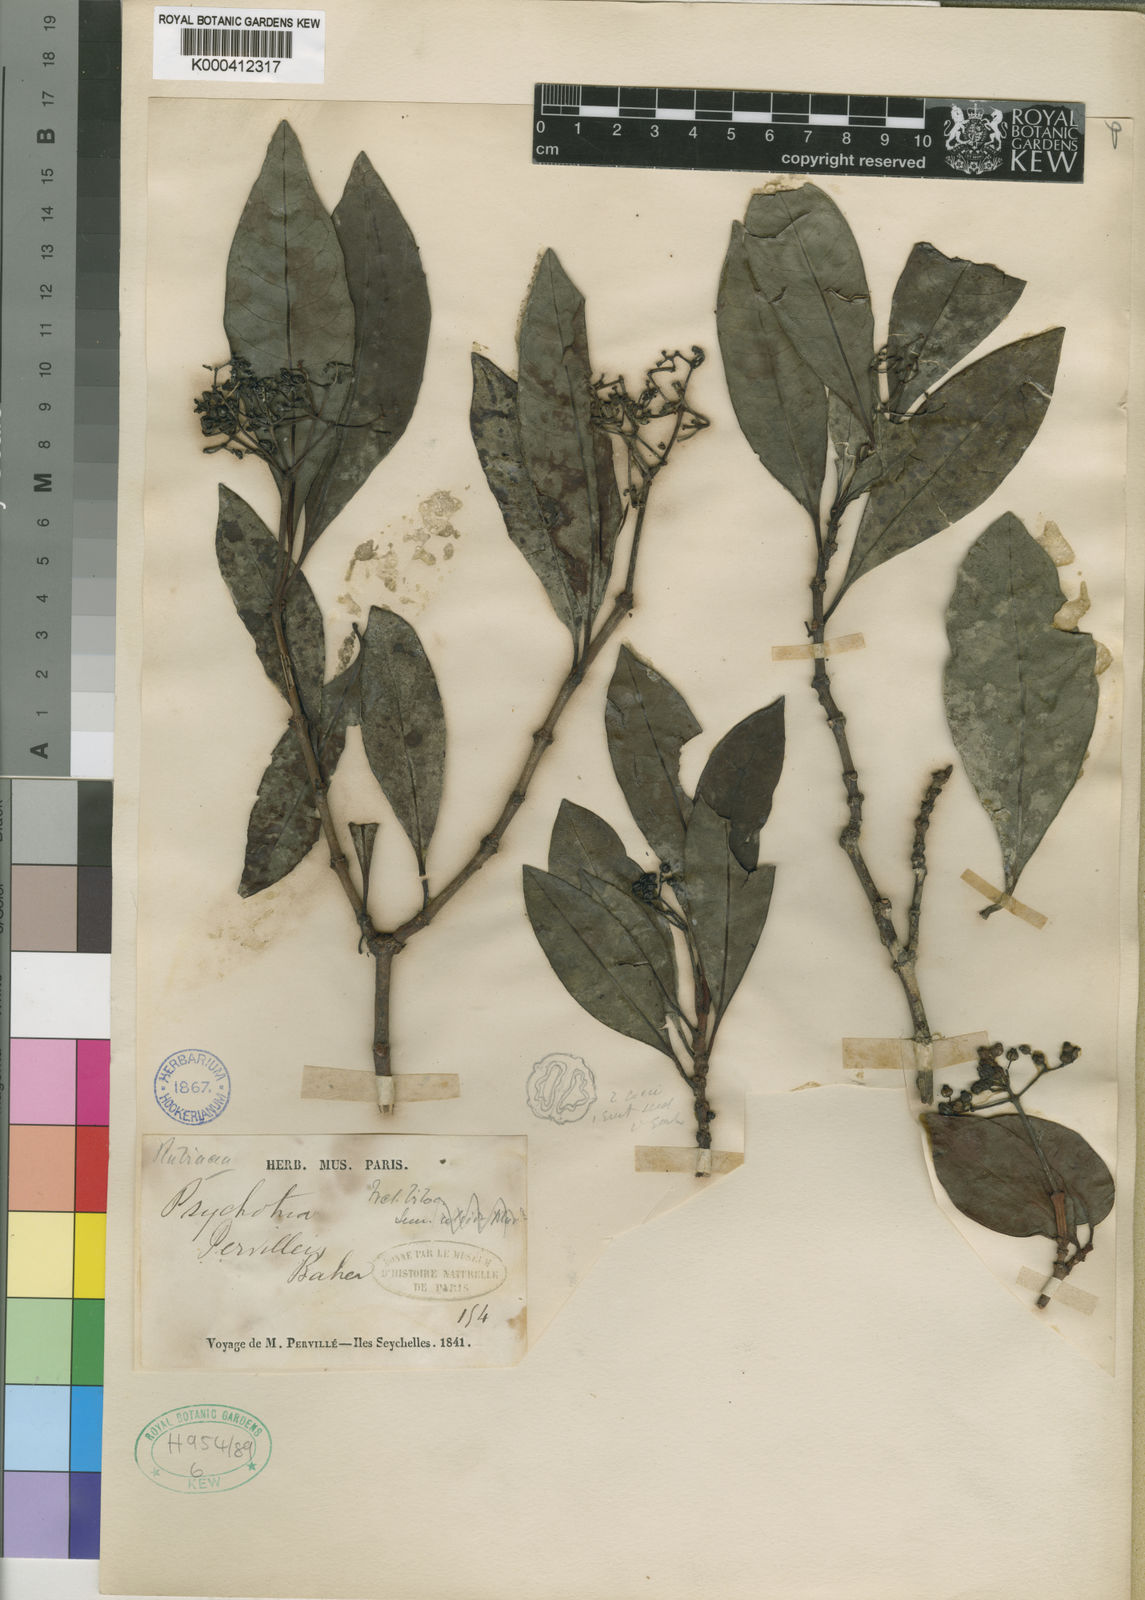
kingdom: Plantae
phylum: Tracheophyta
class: Magnoliopsida
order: Gentianales
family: Rubiaceae
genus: Psychotria
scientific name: Psychotria pervillei
